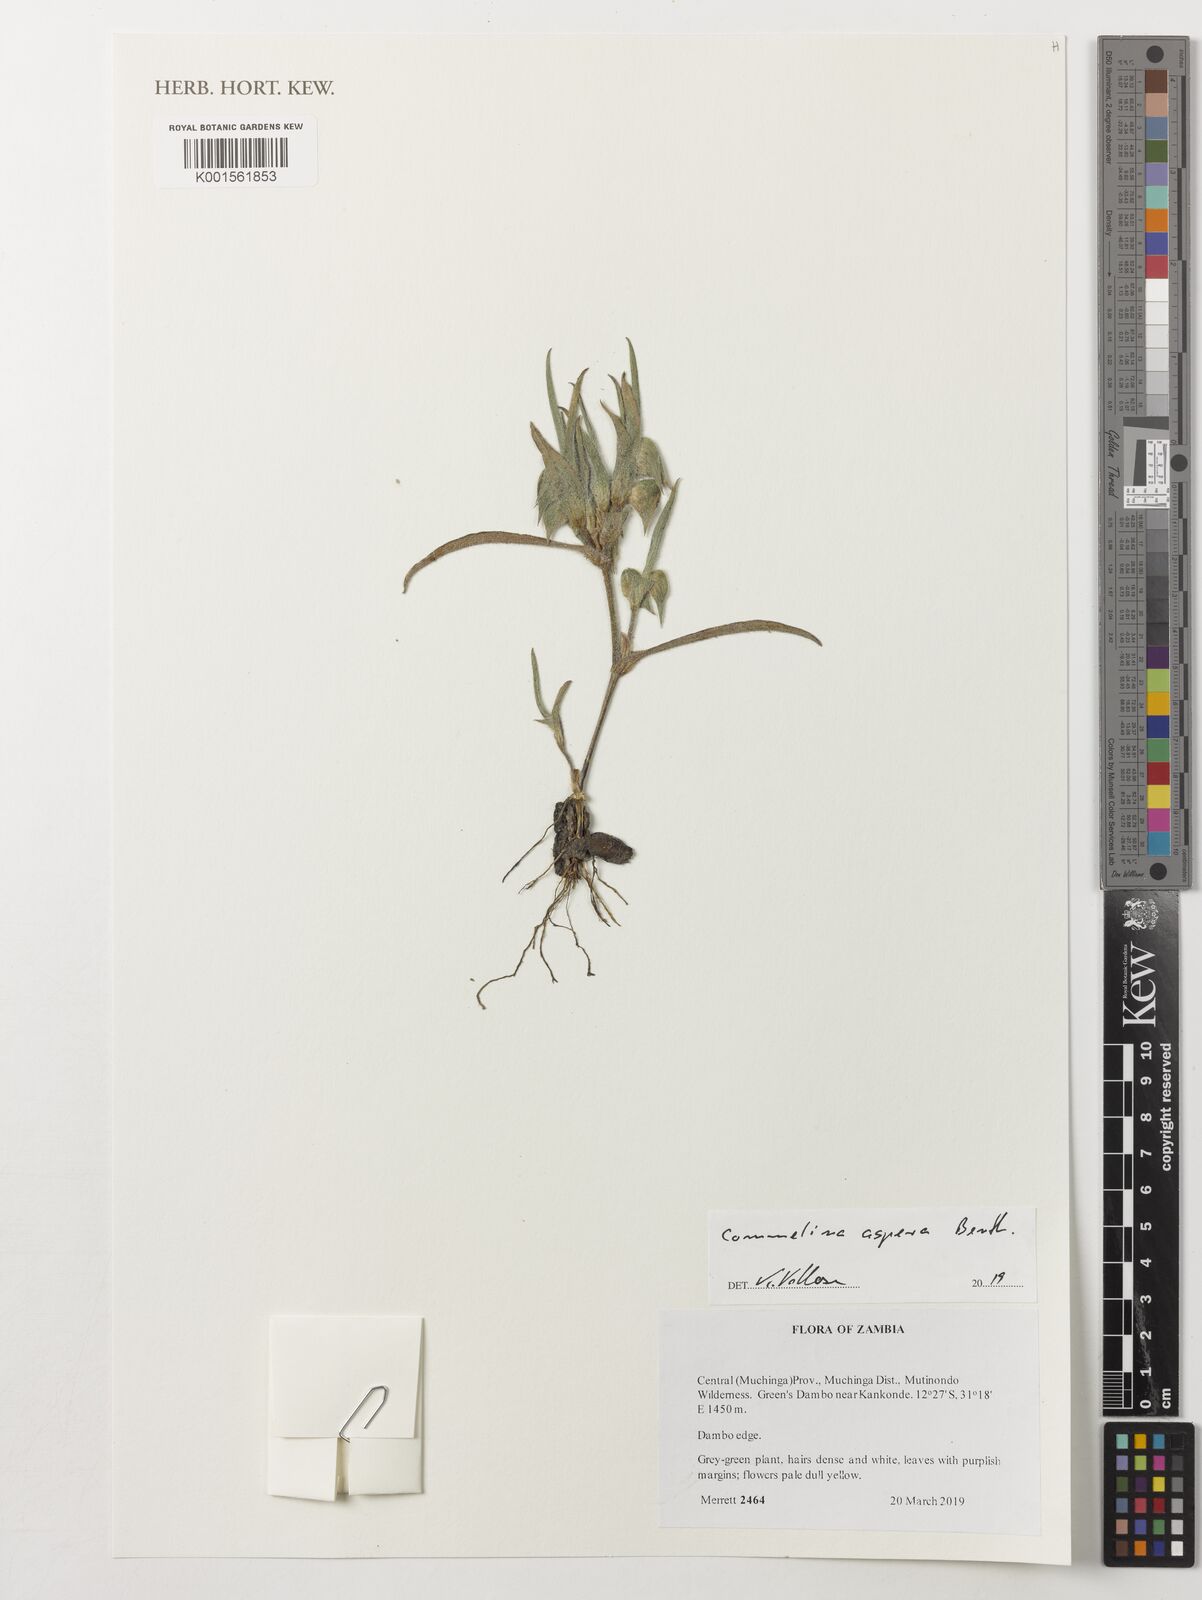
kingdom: Plantae
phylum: Tracheophyta
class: Liliopsida
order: Commelinales
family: Commelinaceae
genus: Commelina
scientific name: Commelina aspera
